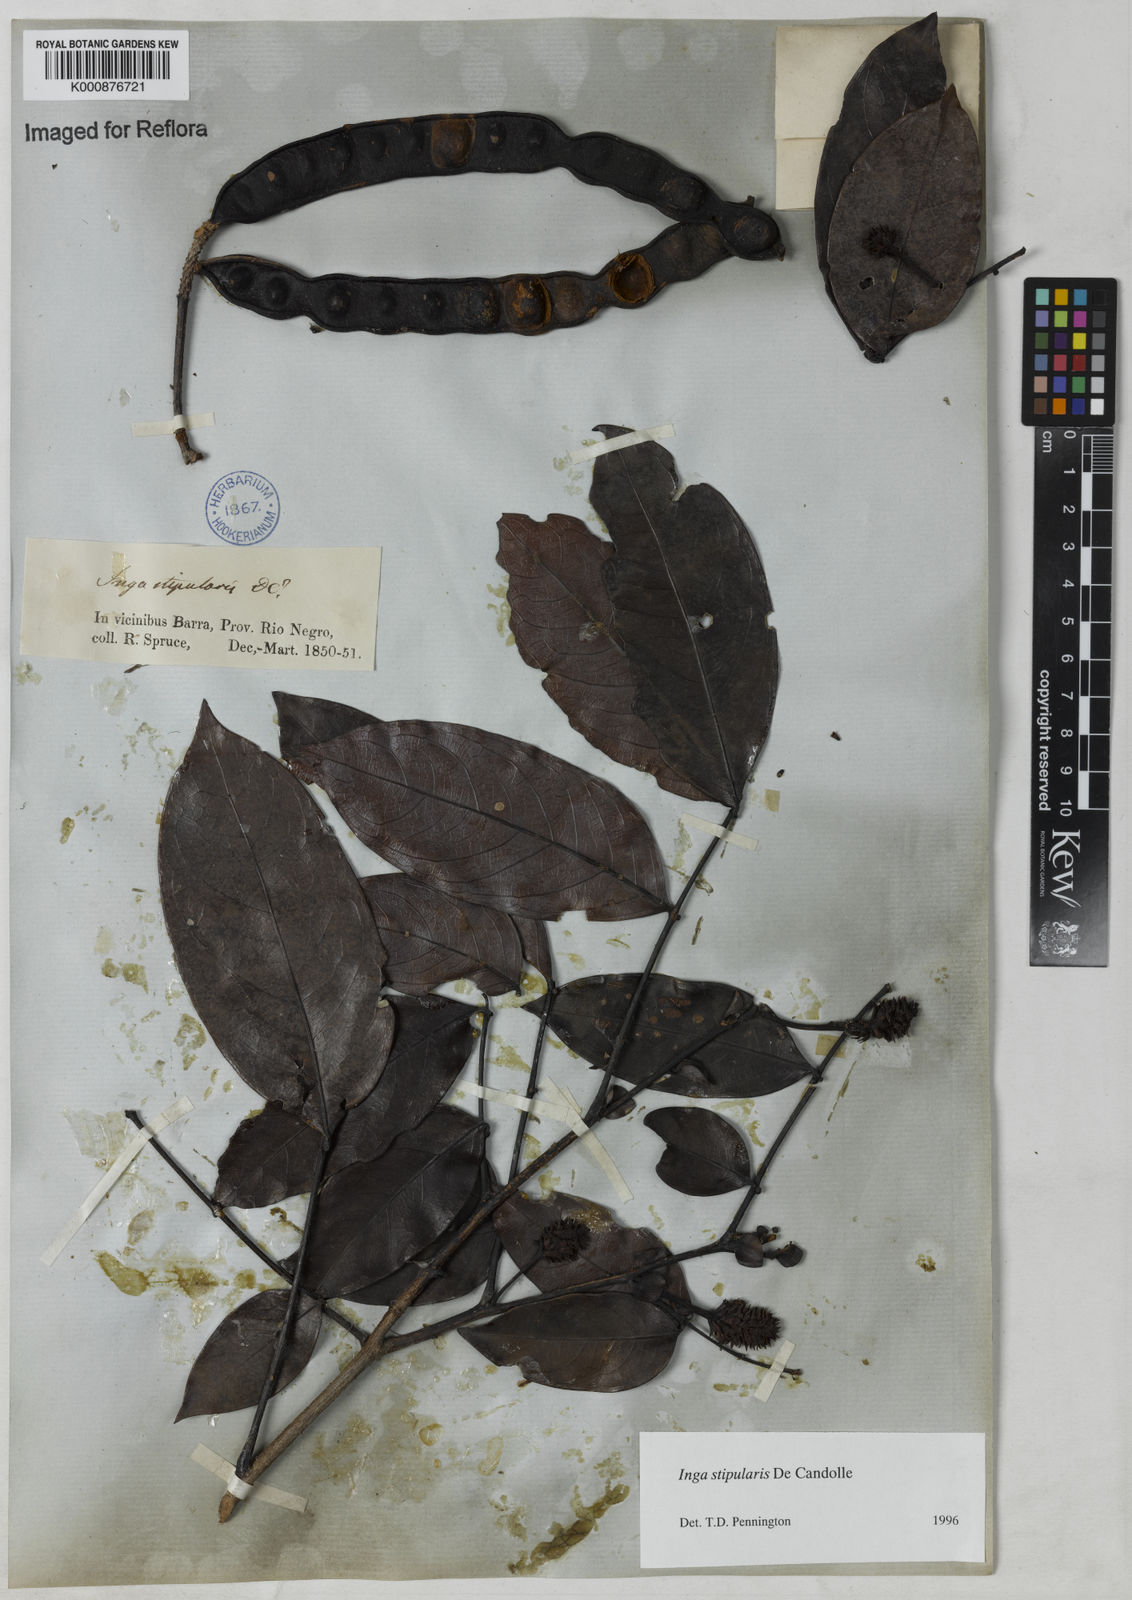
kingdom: Plantae
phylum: Tracheophyta
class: Magnoliopsida
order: Fabales
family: Fabaceae
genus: Inga
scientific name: Inga stipularis
